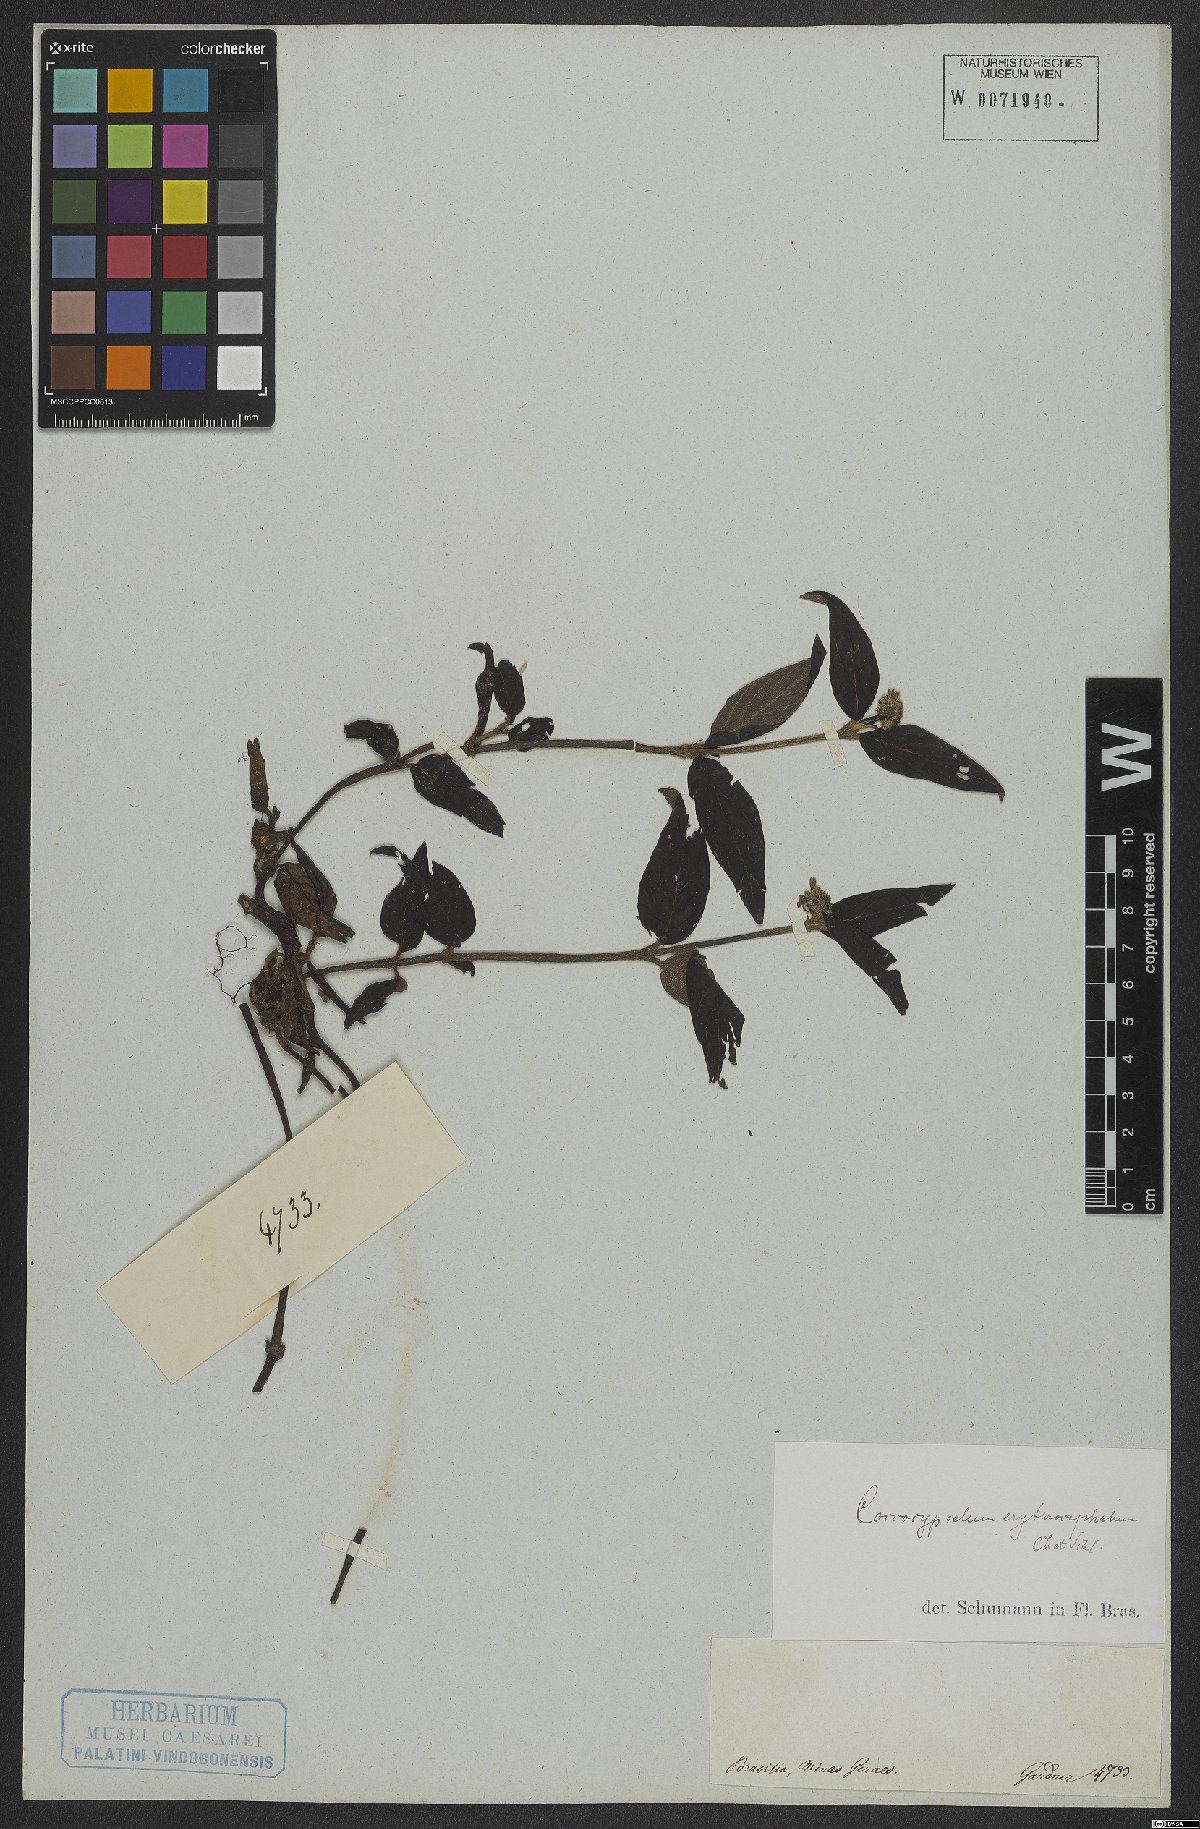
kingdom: Plantae
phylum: Tracheophyta
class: Magnoliopsida
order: Gentianales
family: Rubiaceae
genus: Coccocypselum
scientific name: Coccocypselum erythrocephalum
